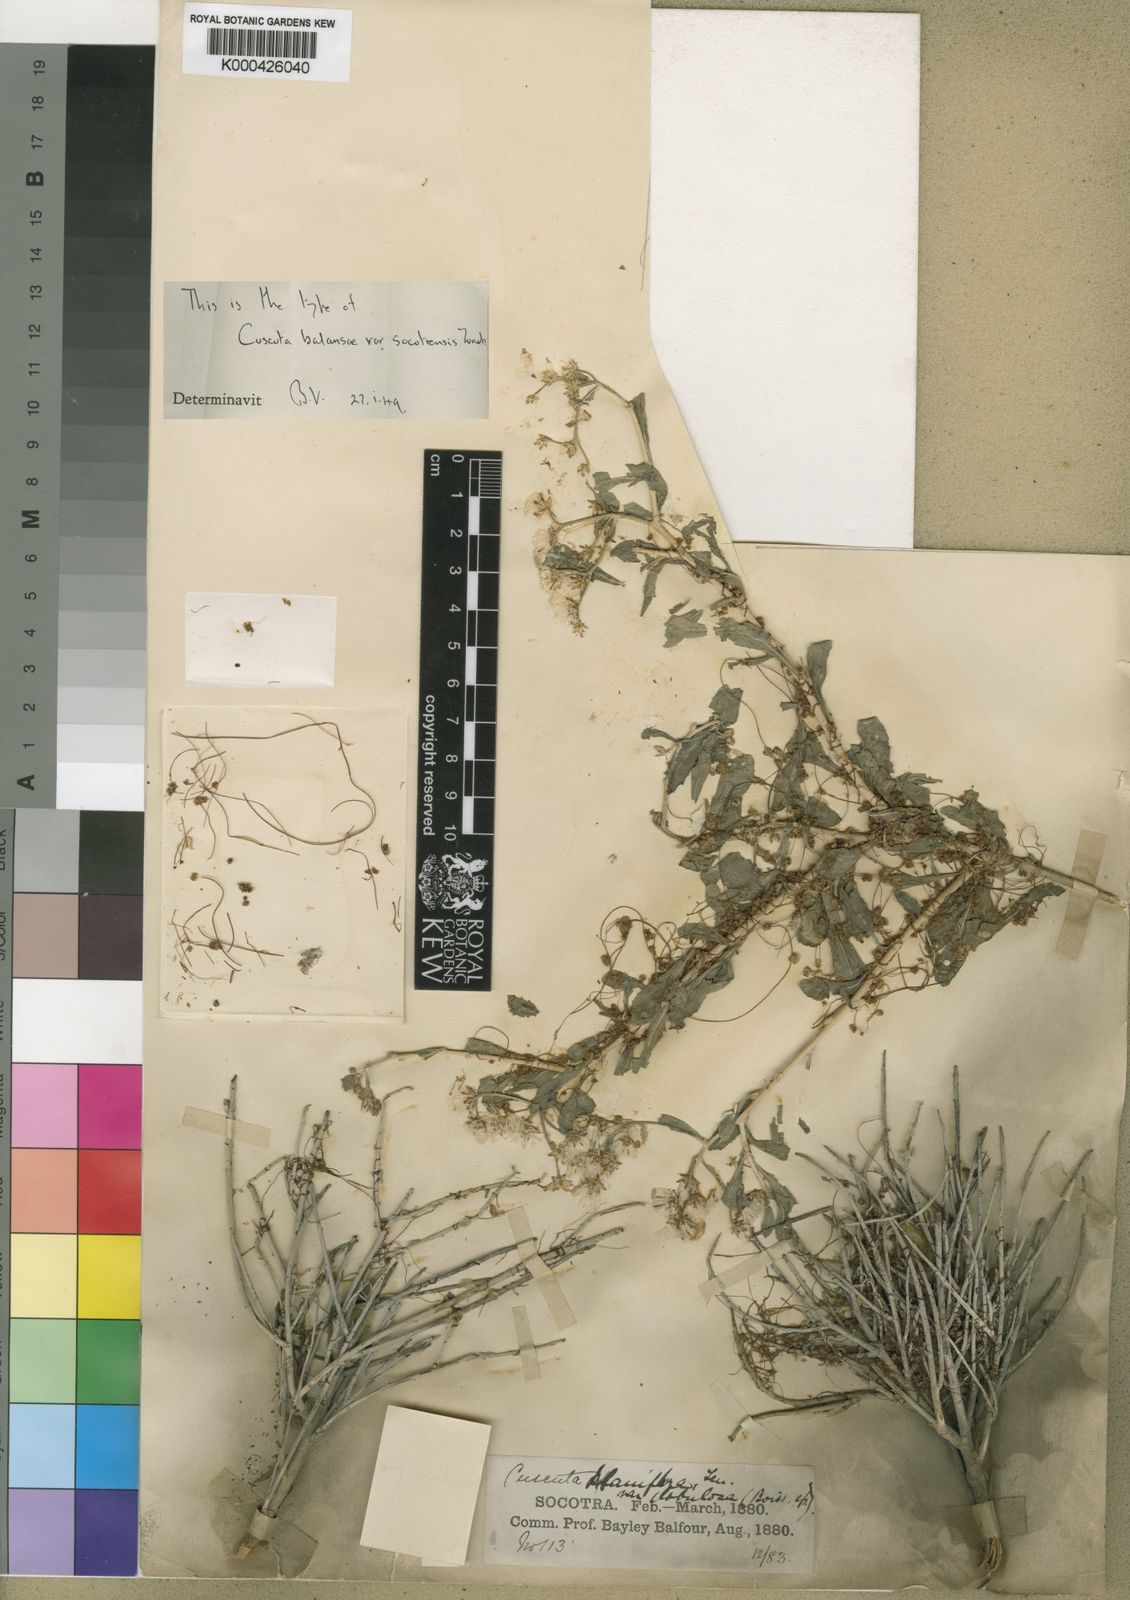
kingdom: Plantae
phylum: Tracheophyta
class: Magnoliopsida
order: Solanales
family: Convolvulaceae
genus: Cuscuta
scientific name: Cuscuta planiflora
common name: Small-seed alfalfa dodder
